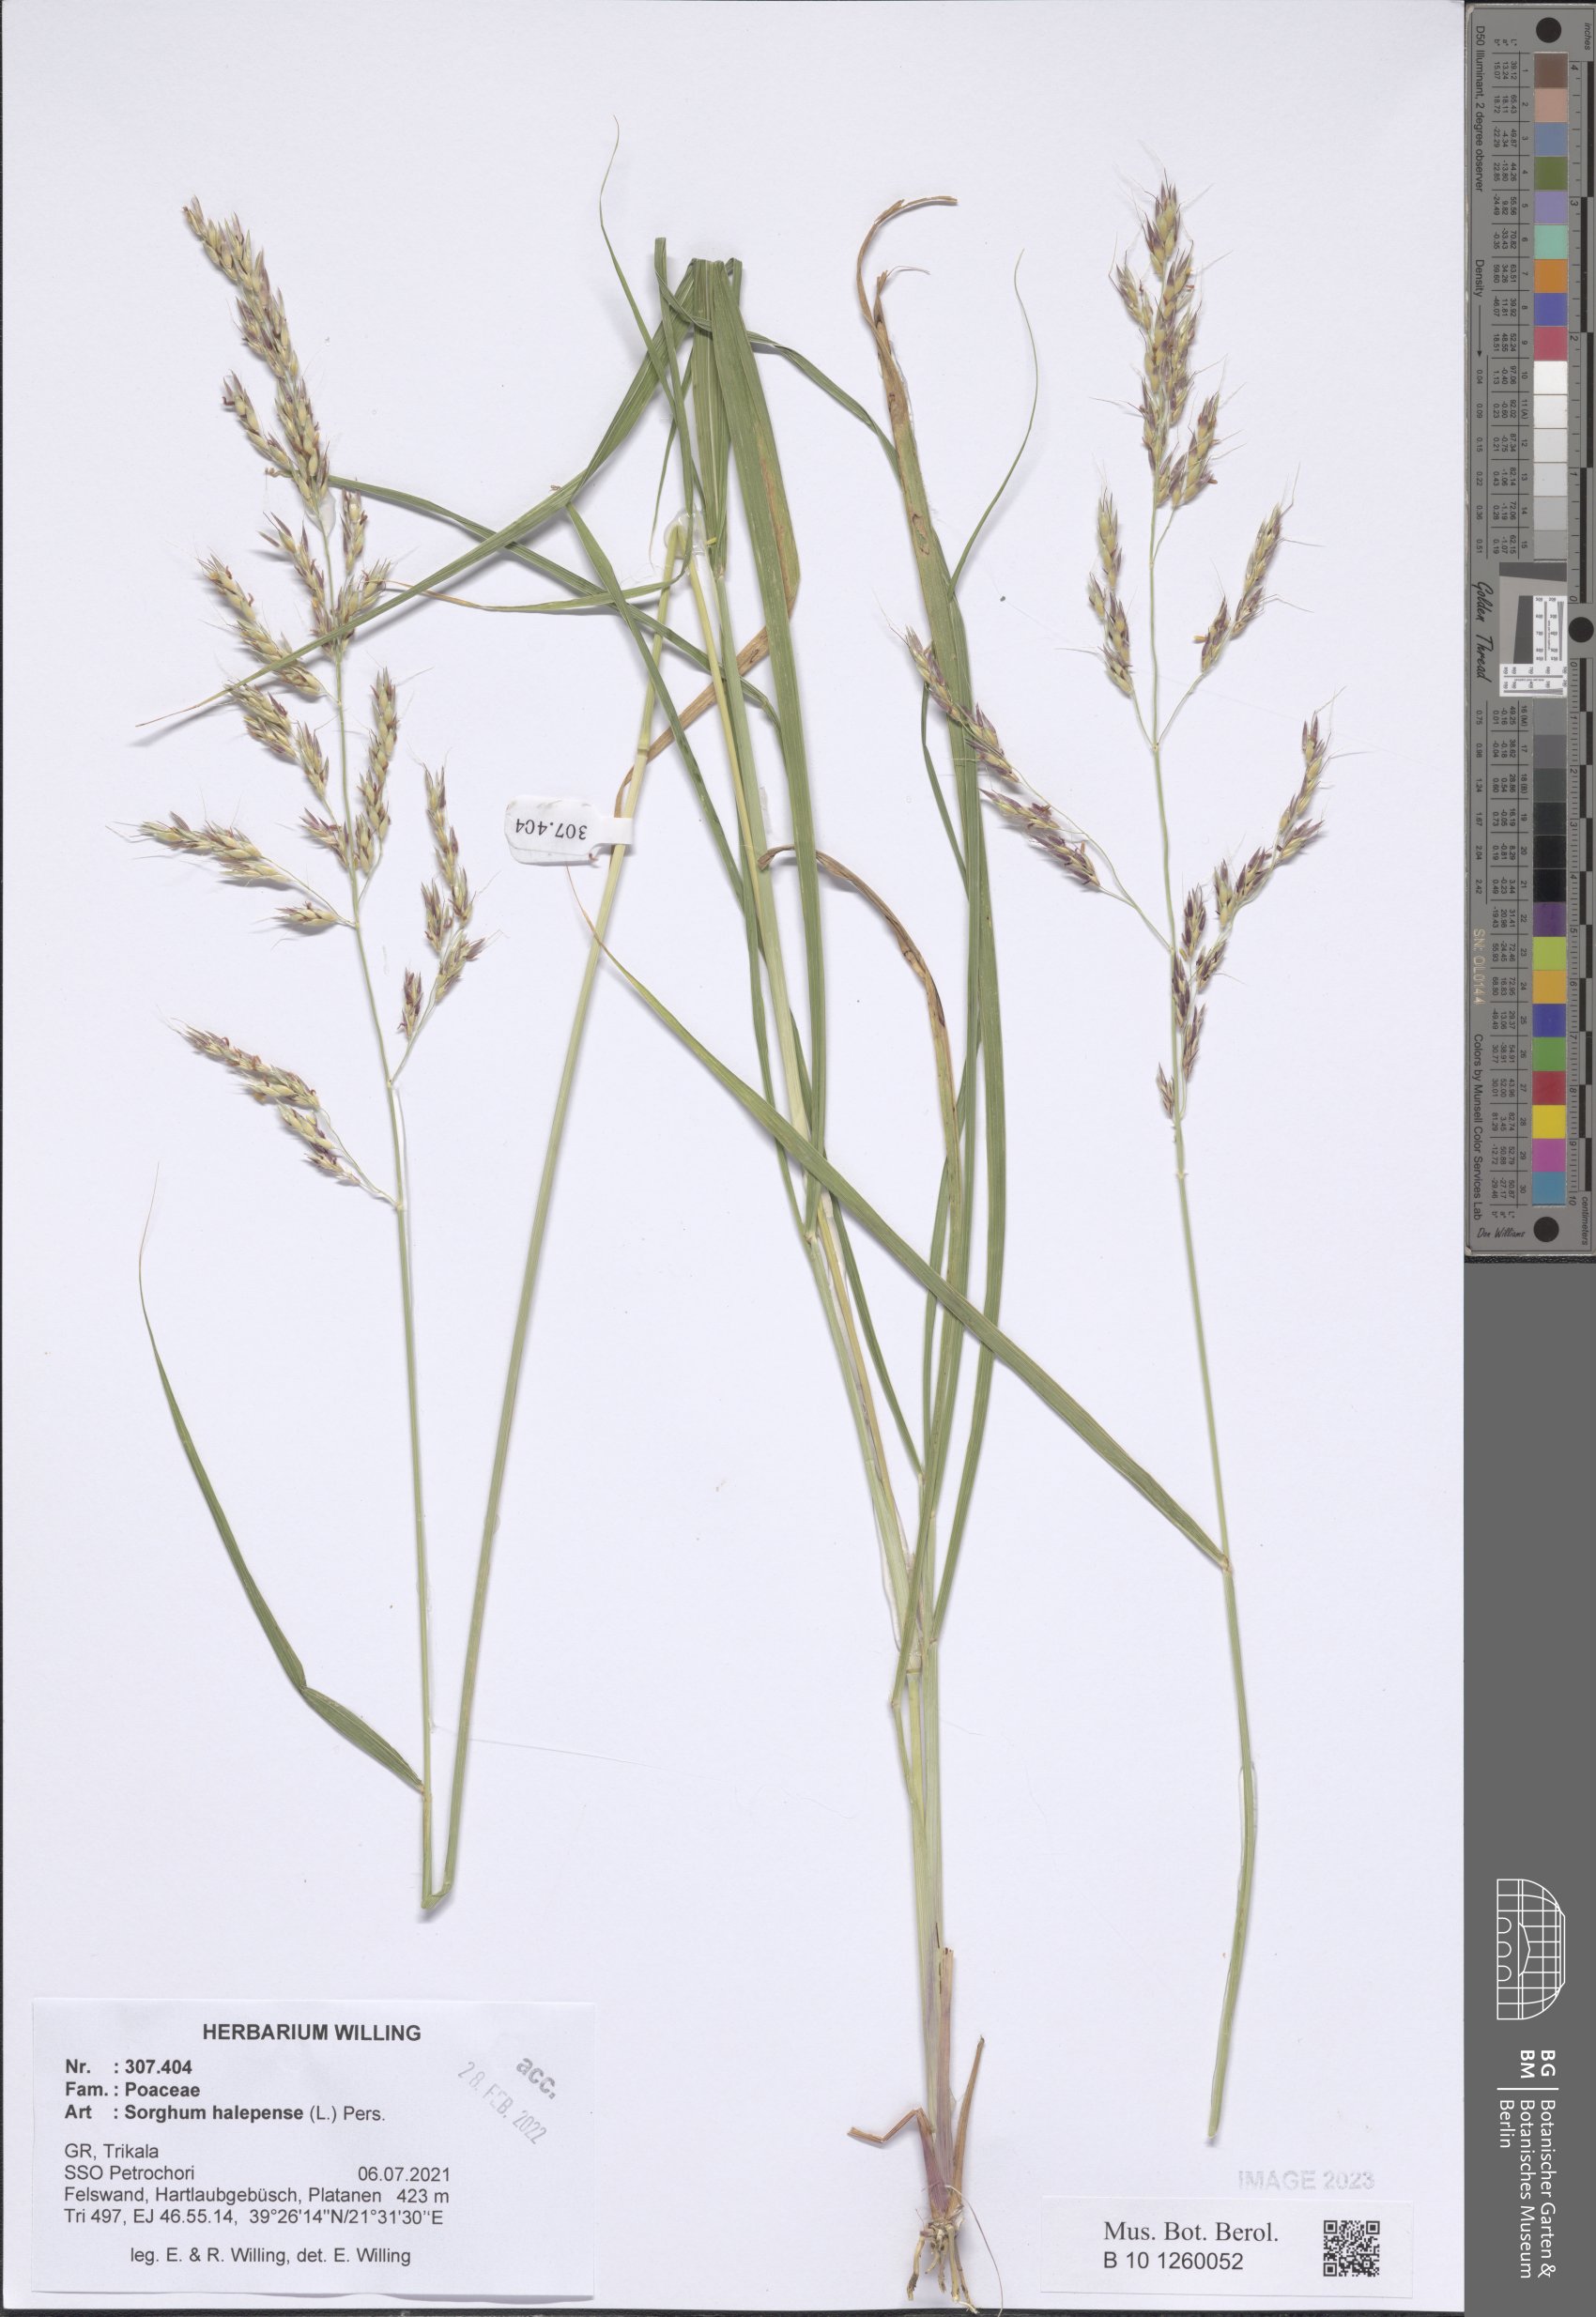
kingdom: Plantae
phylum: Tracheophyta
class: Liliopsida
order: Poales
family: Poaceae
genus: Sorghum
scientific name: Sorghum halepense
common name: Johnson-grass
